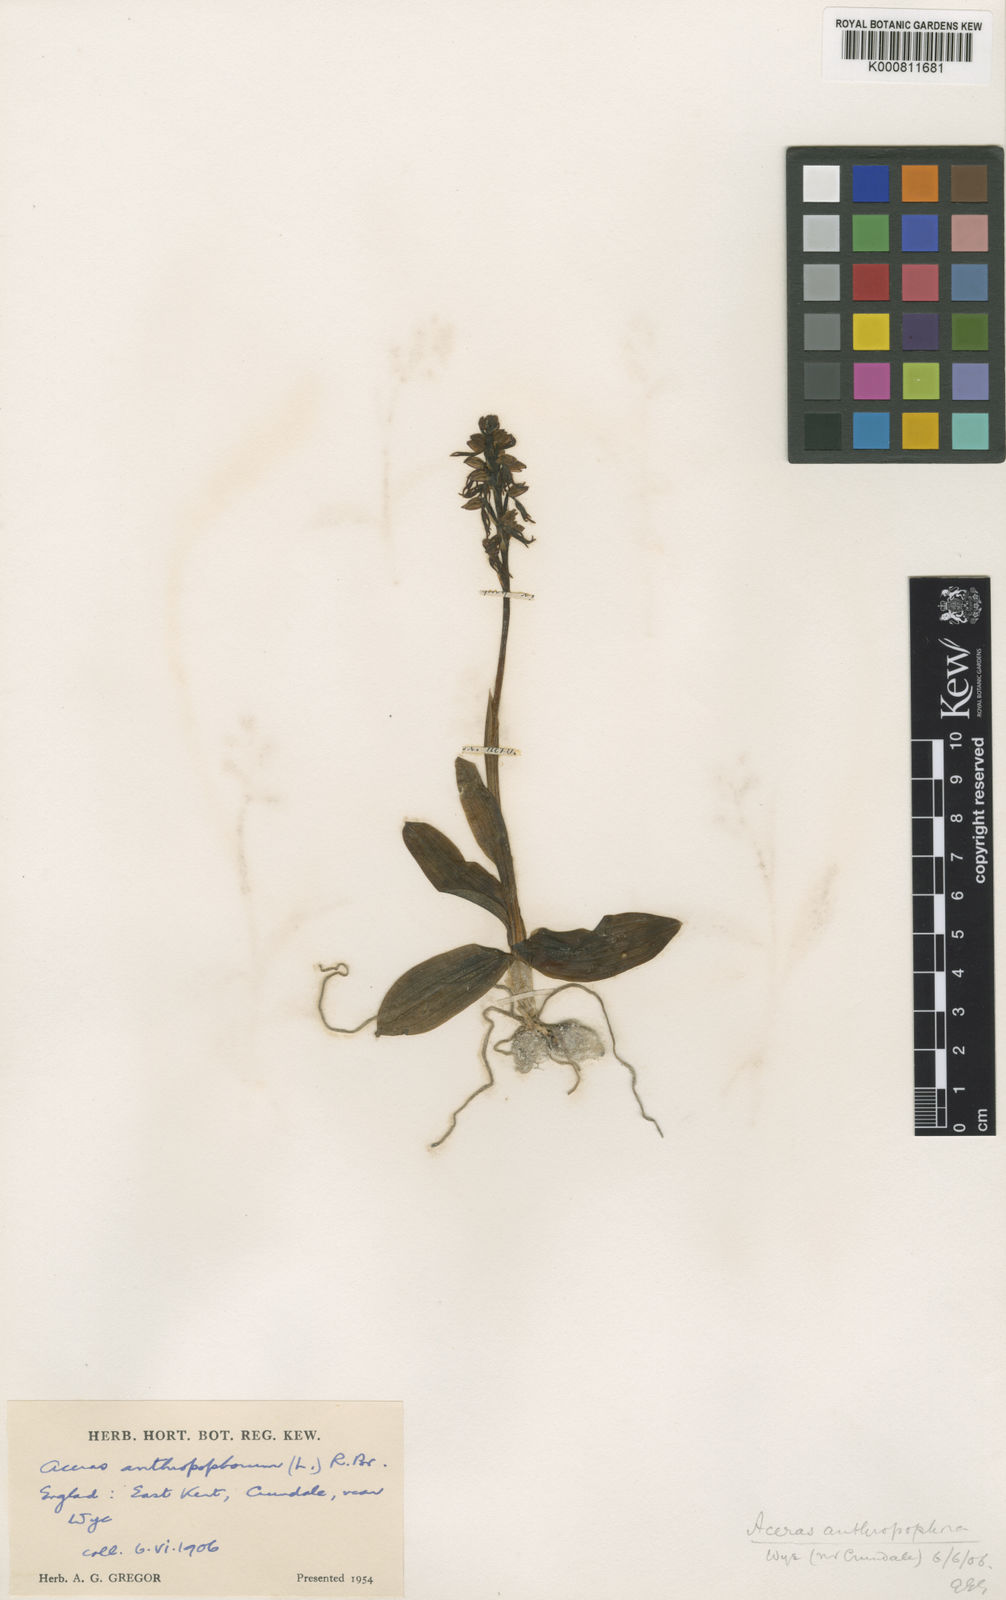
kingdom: Plantae
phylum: Tracheophyta
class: Liliopsida
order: Asparagales
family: Orchidaceae
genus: Orchis
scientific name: Orchis
